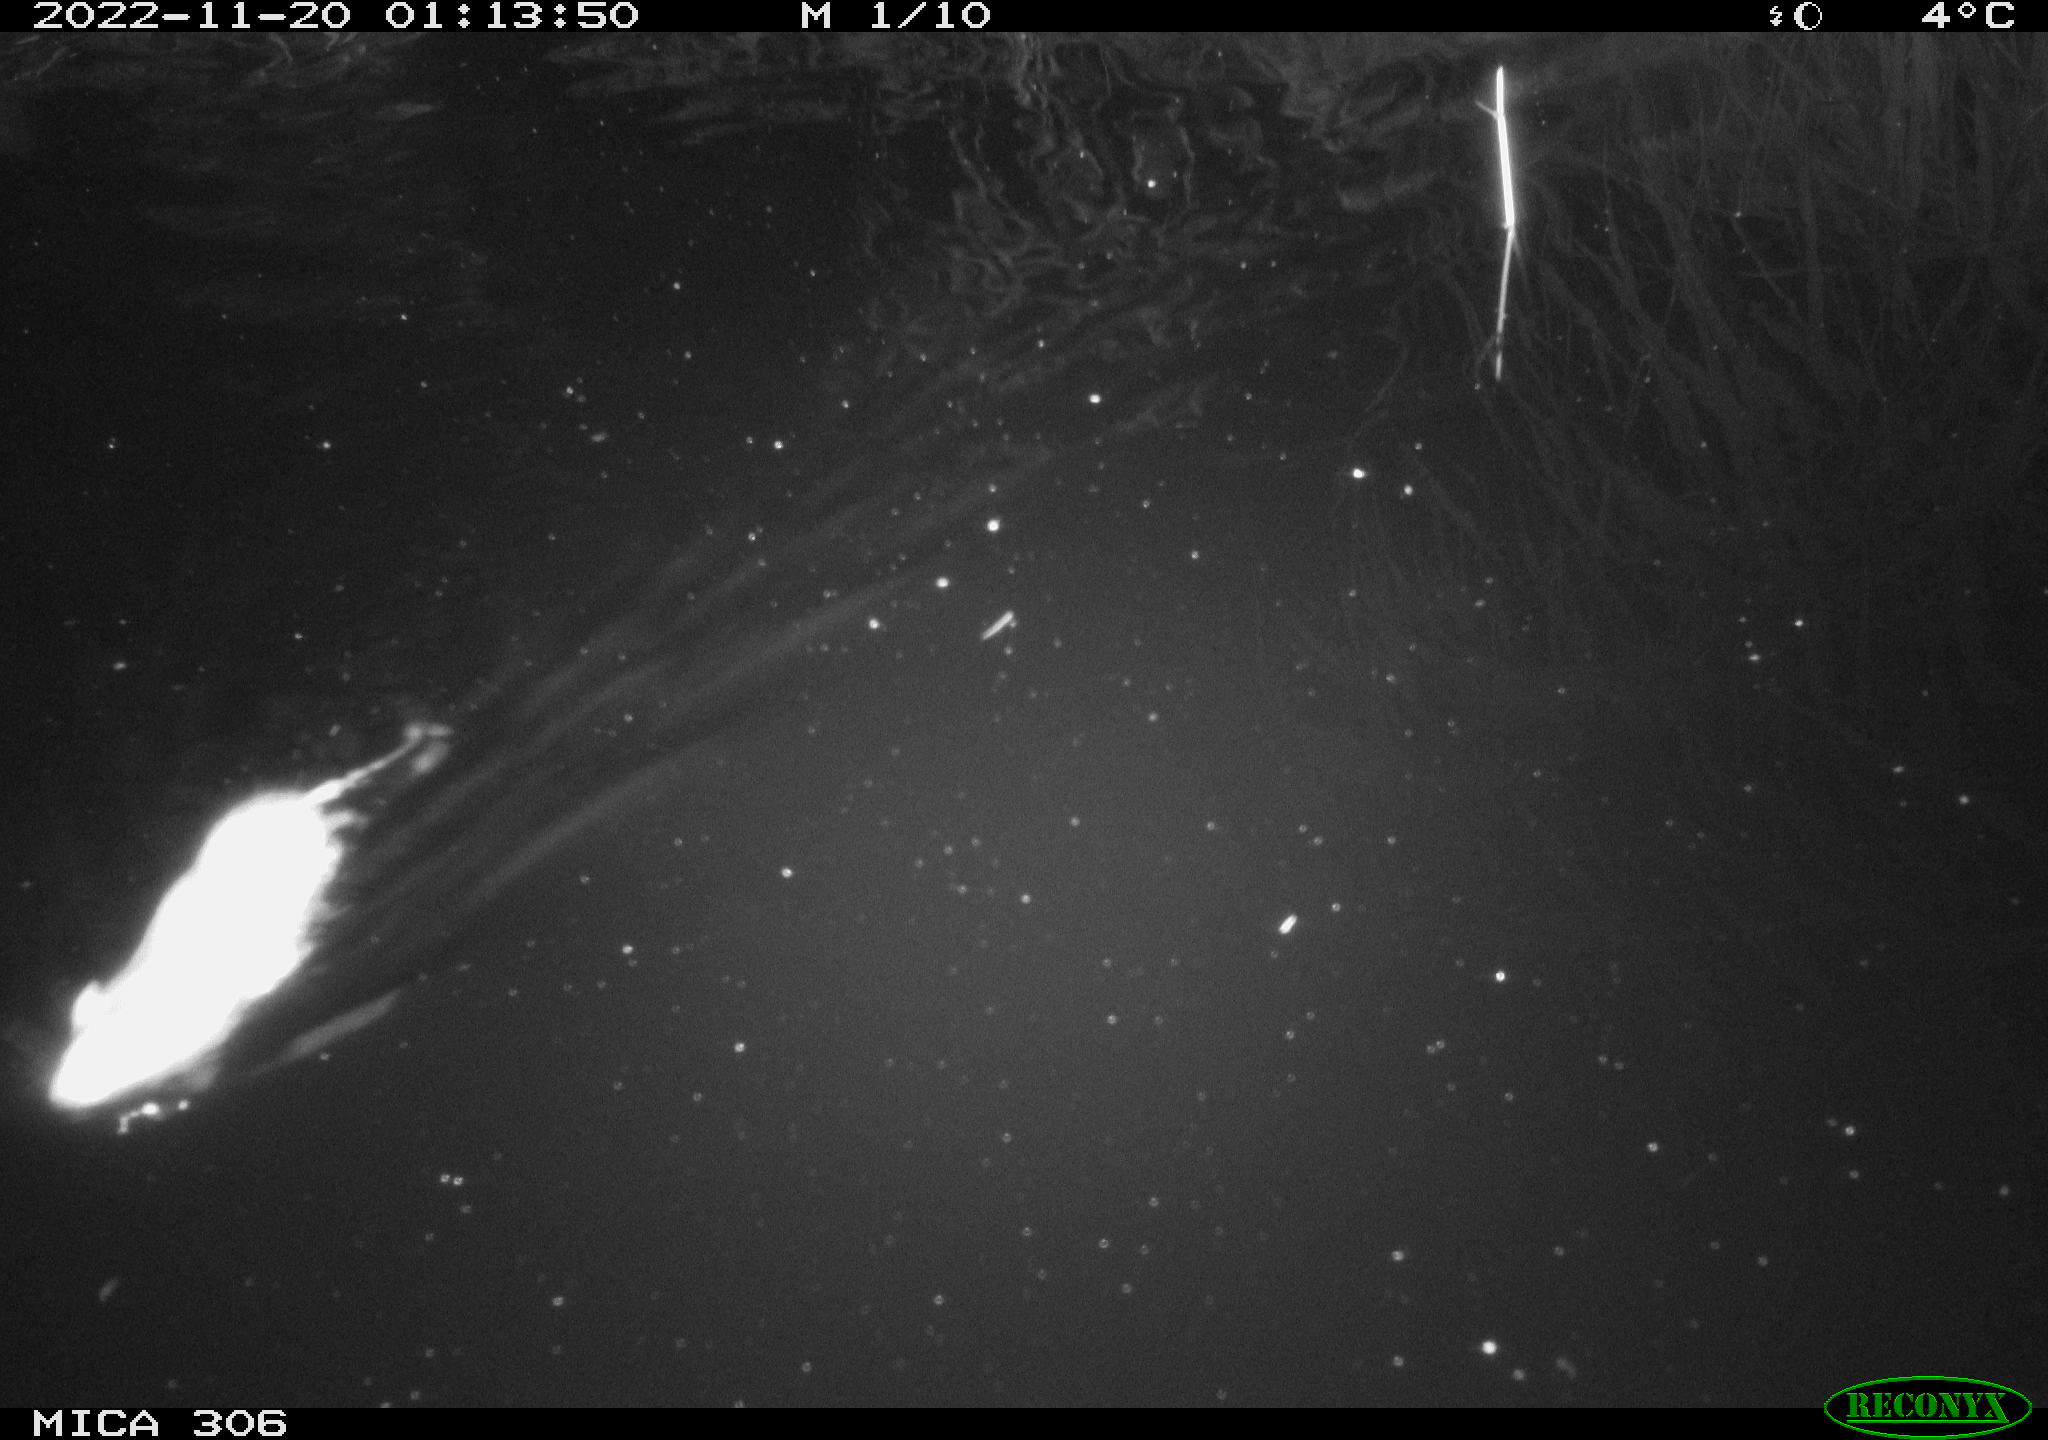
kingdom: Animalia
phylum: Chordata
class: Mammalia
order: Rodentia
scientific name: Rodentia
